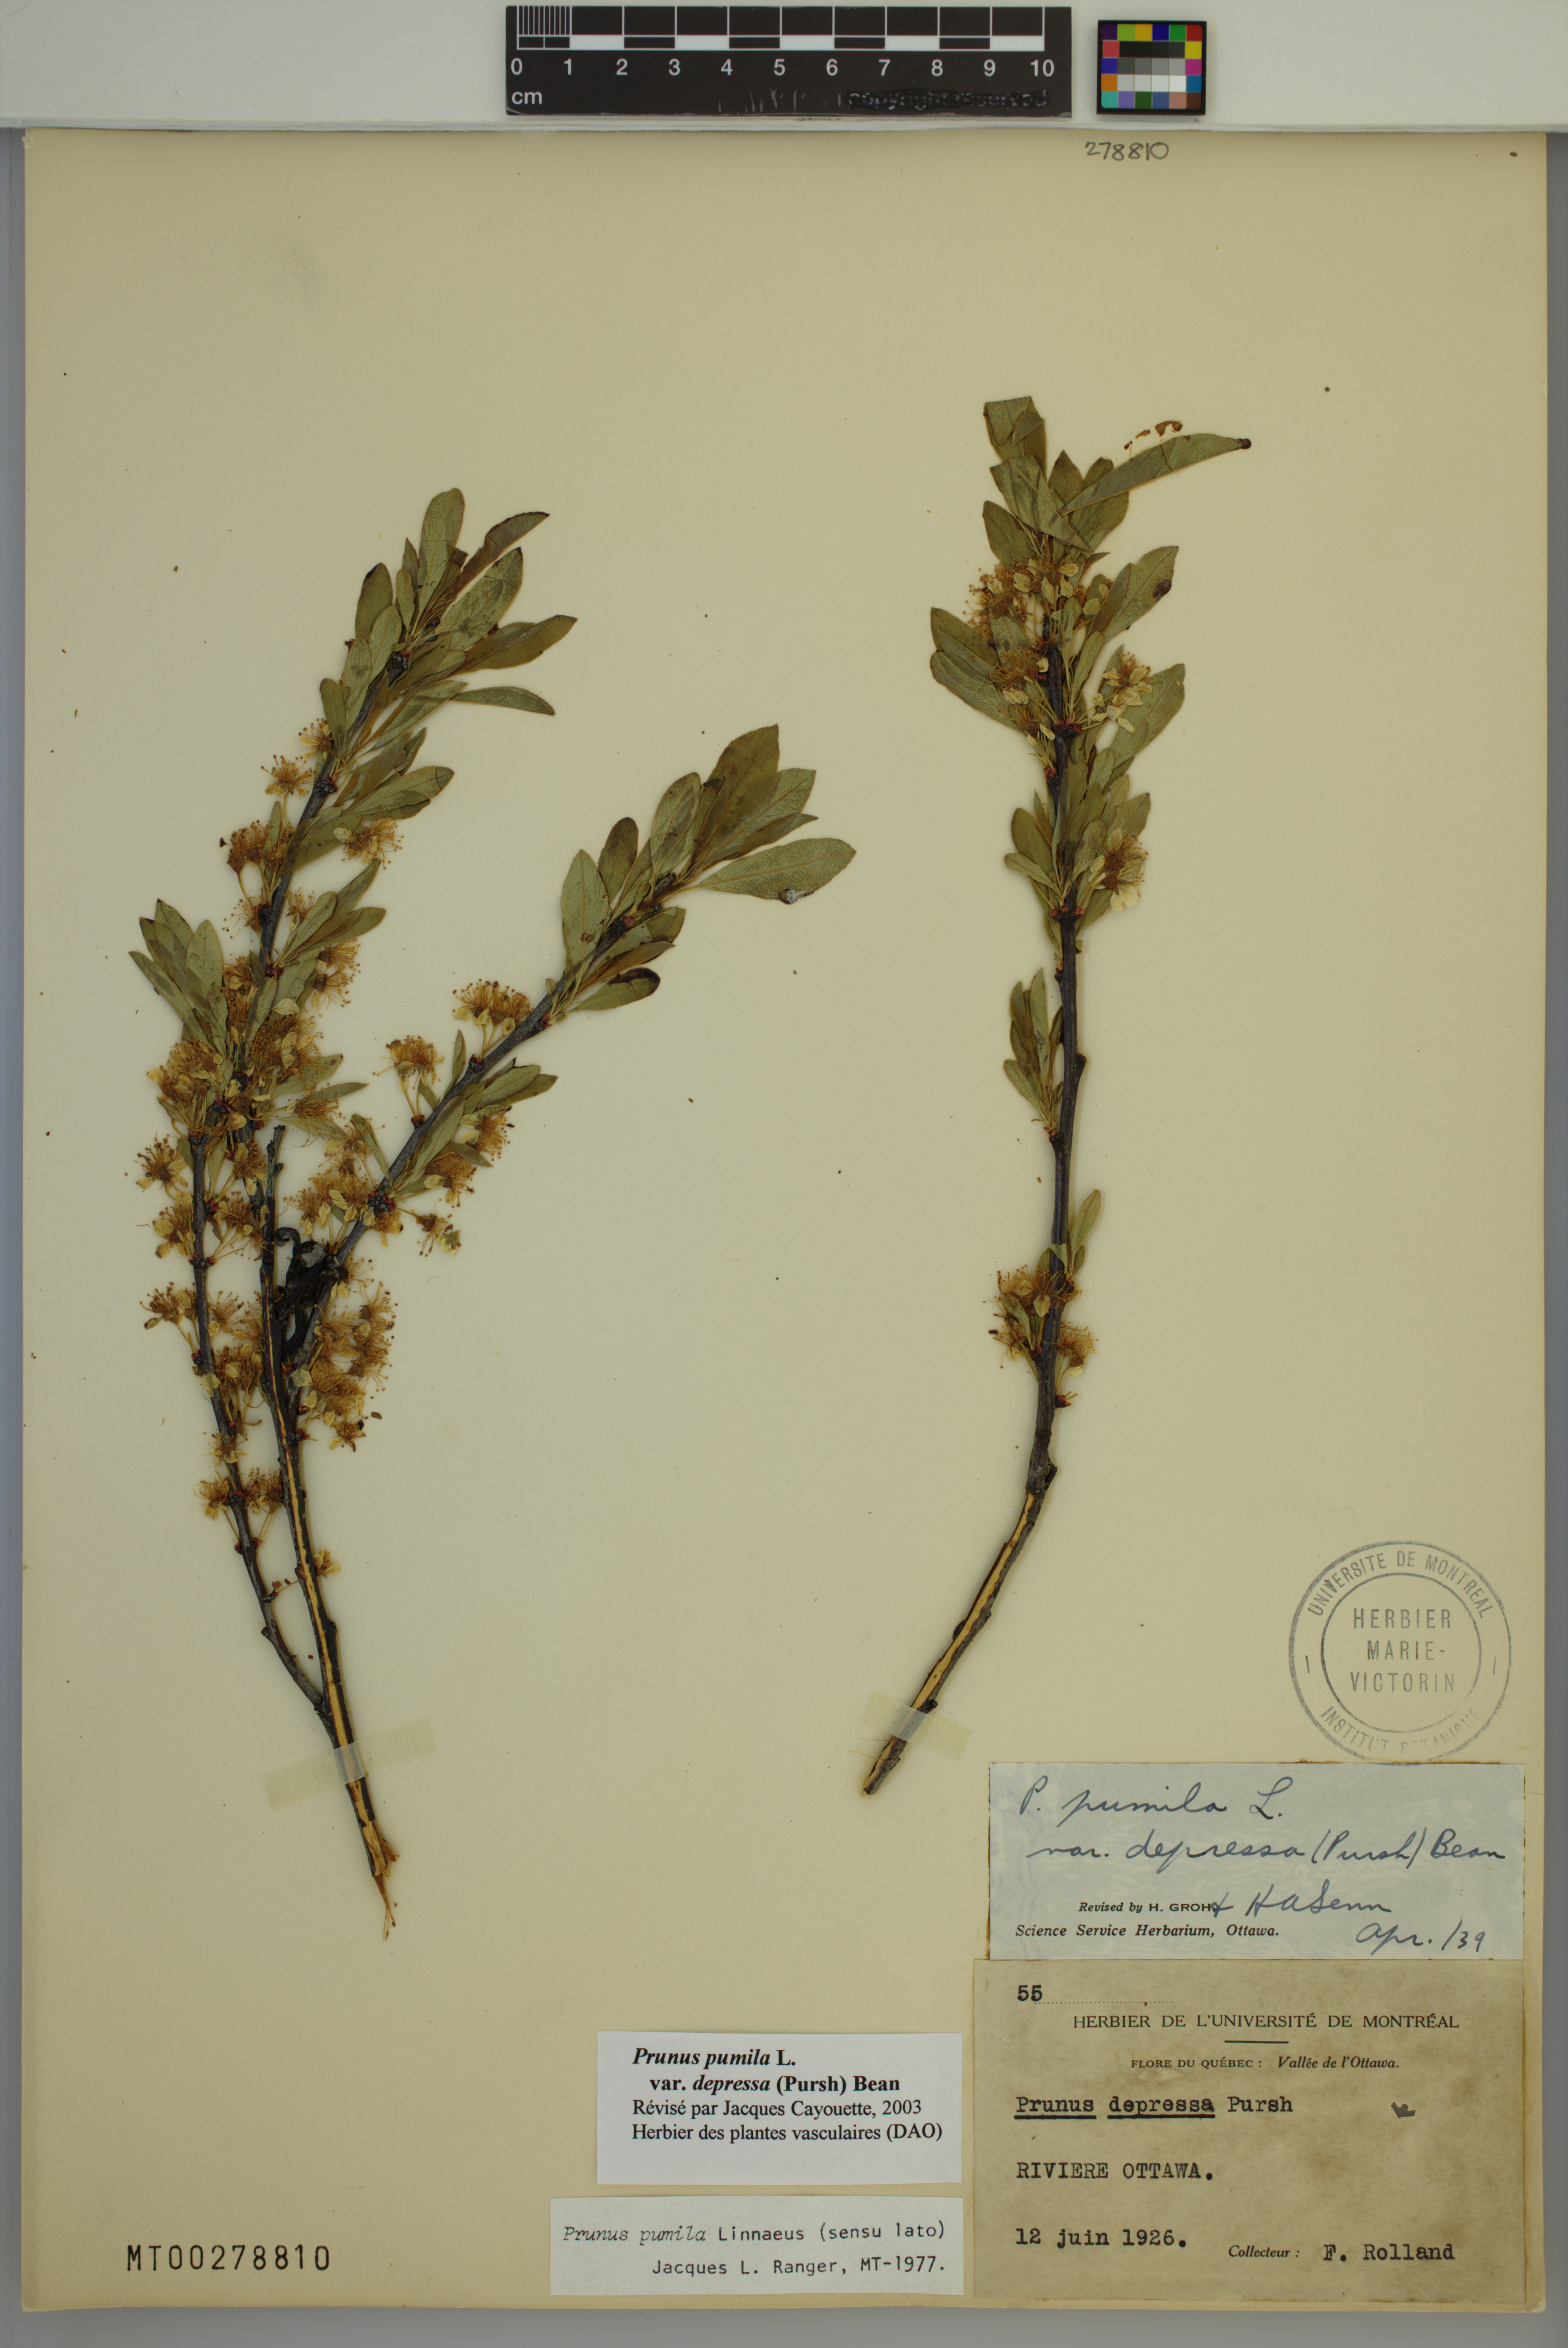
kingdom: Plantae
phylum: Tracheophyta
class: Magnoliopsida
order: Rosales
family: Rosaceae
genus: Prunus
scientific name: Prunus pumila
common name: Dwarf cherry
